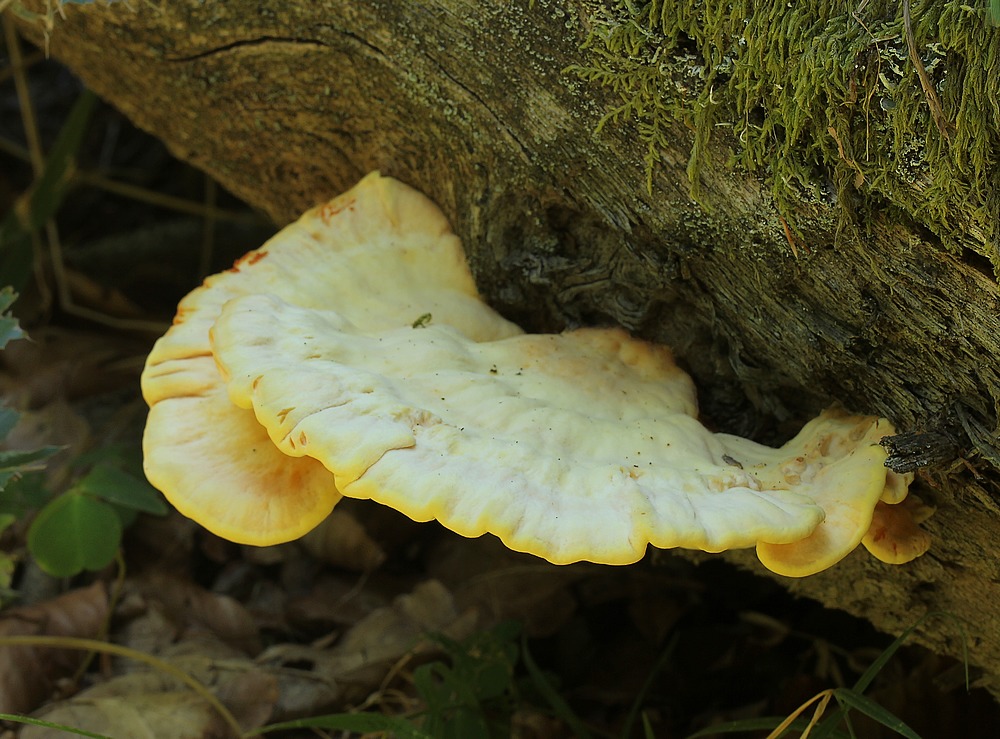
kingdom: Fungi
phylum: Basidiomycota
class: Agaricomycetes
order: Polyporales
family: Laetiporaceae
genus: Laetiporus
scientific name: Laetiporus sulphureus
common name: svovlporesvamp
